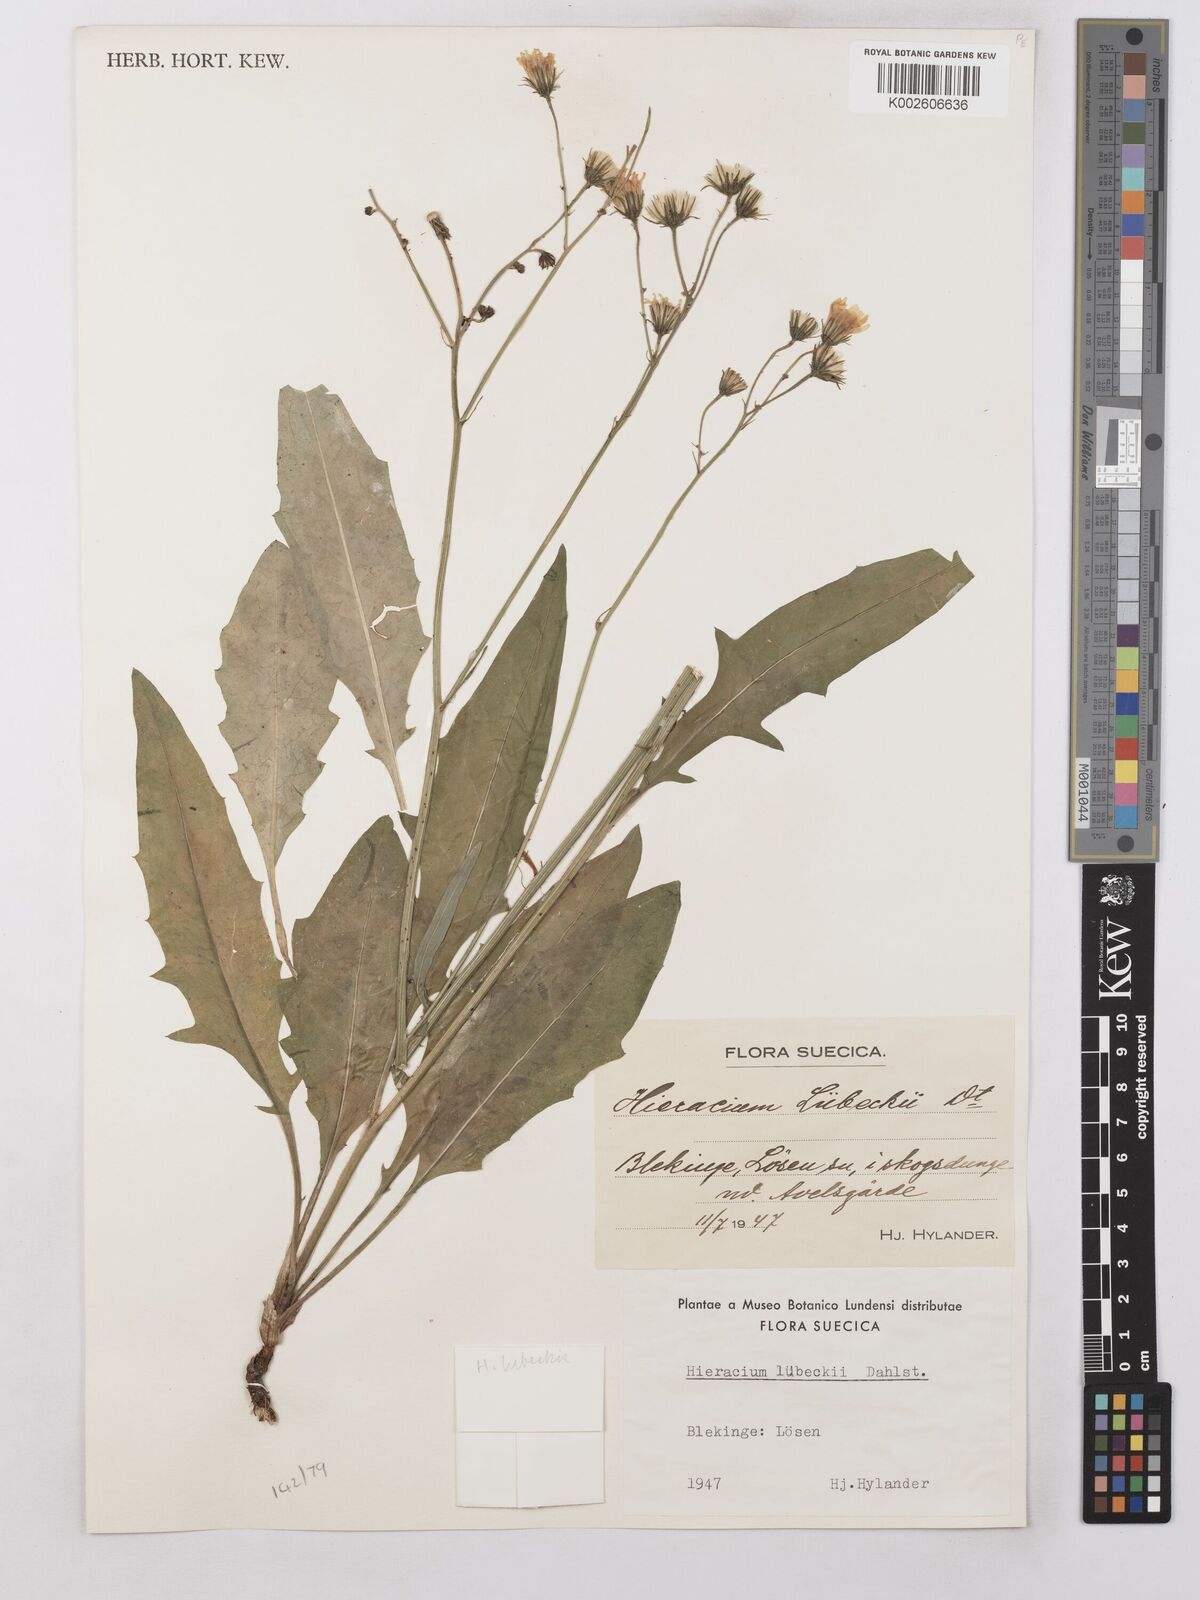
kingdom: Plantae
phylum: Tracheophyta
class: Magnoliopsida
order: Asterales
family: Asteraceae
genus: Hieracium
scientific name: Hieracium lachenalii
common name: Common hawkweed
